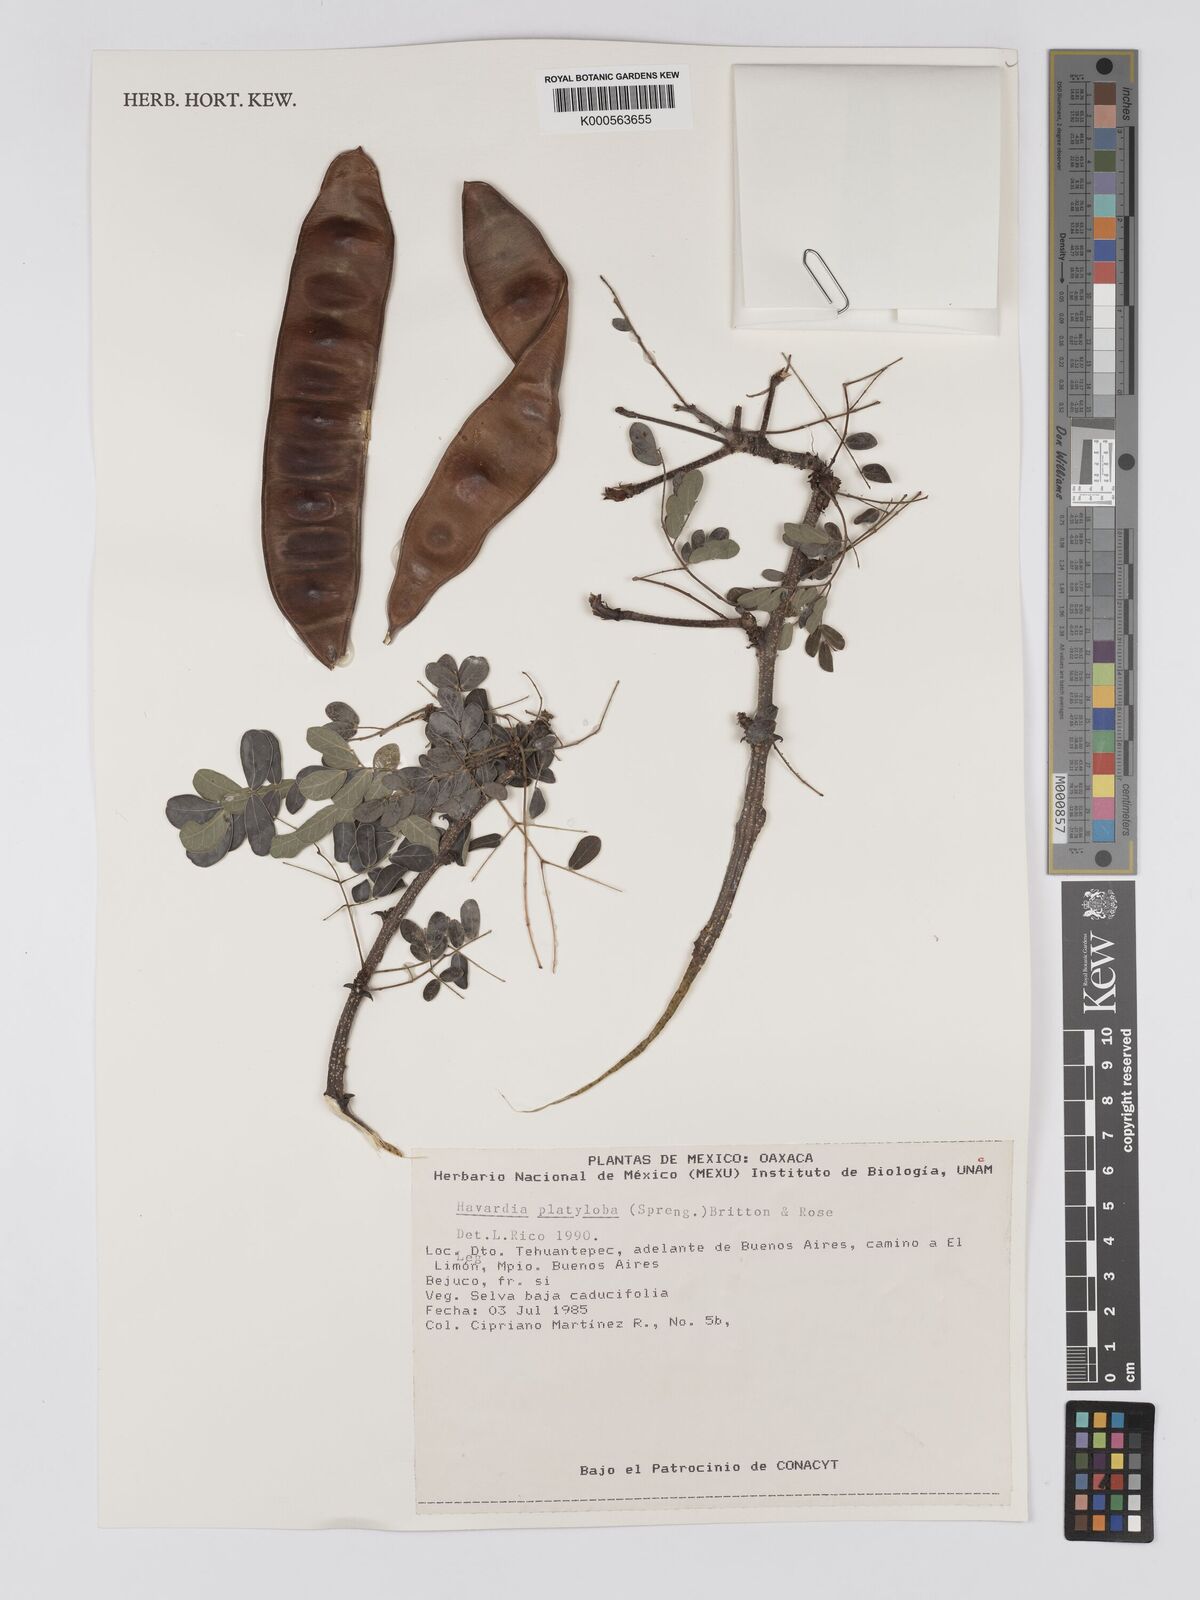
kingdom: Plantae
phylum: Tracheophyta
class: Magnoliopsida
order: Fabales
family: Fabaceae
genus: Havardia
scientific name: Havardia platyloba
